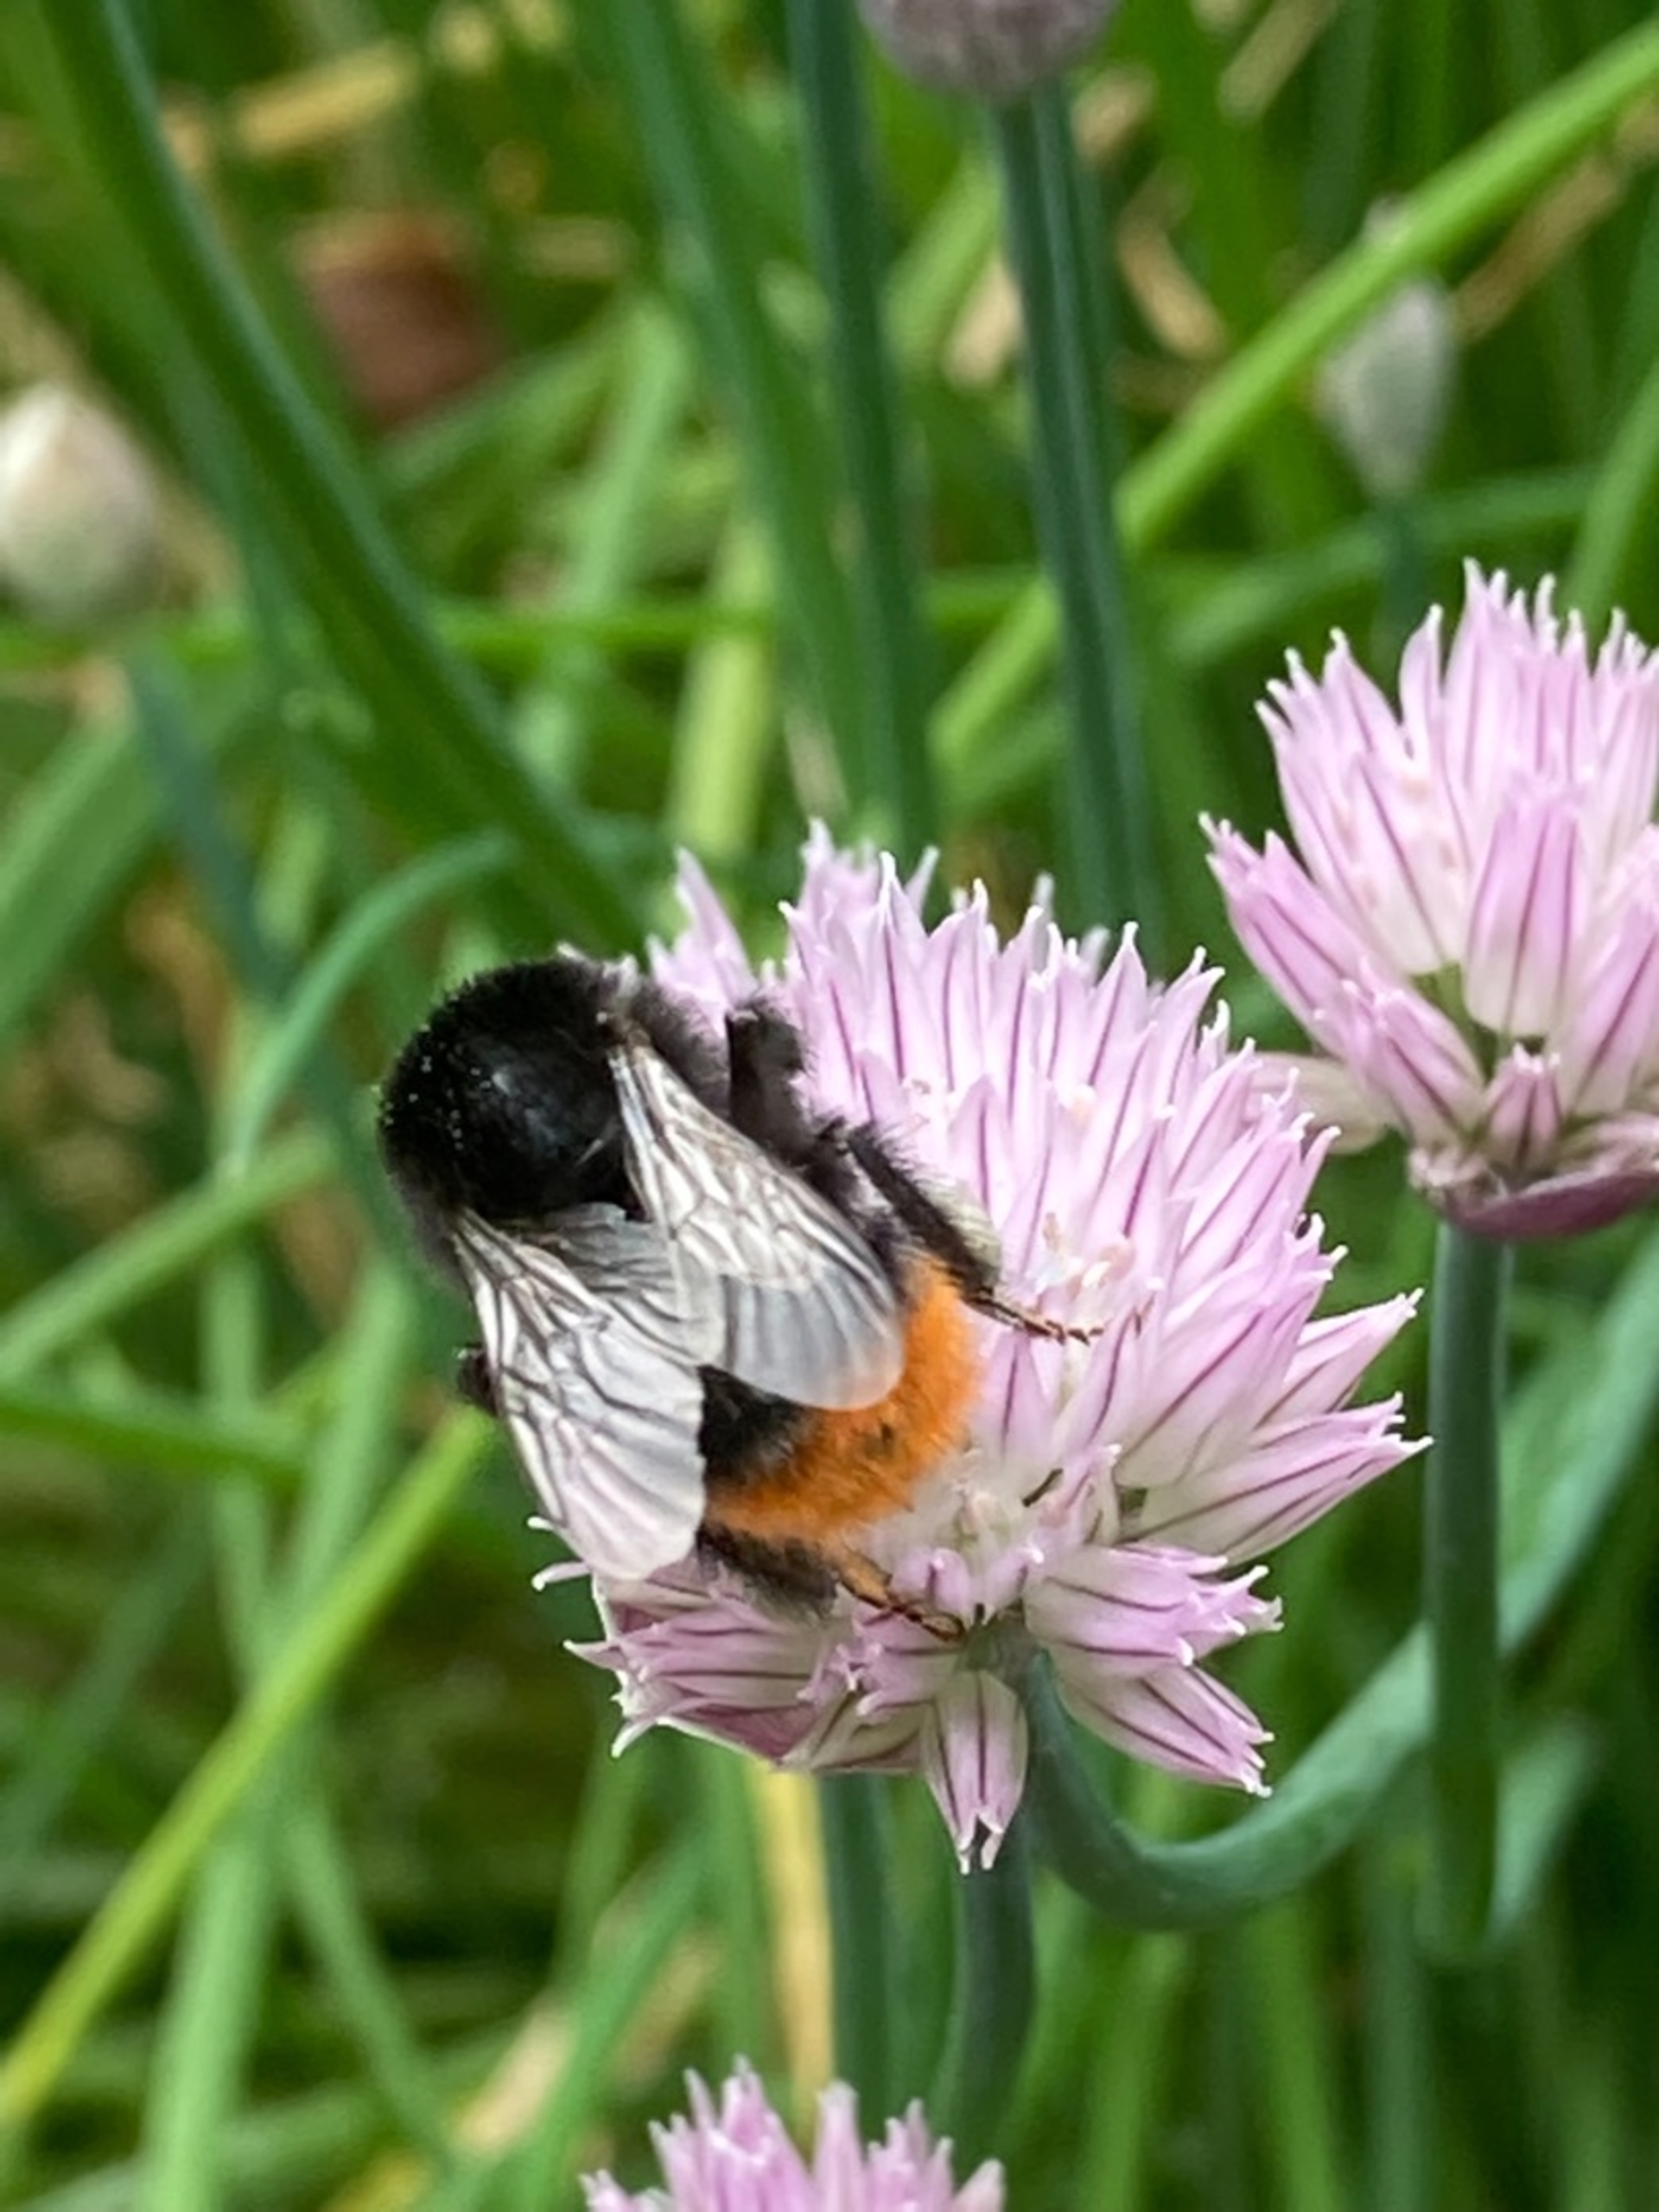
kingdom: Animalia
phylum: Arthropoda
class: Insecta
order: Hymenoptera
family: Apidae
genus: Bombus
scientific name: Bombus
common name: Humlebier
